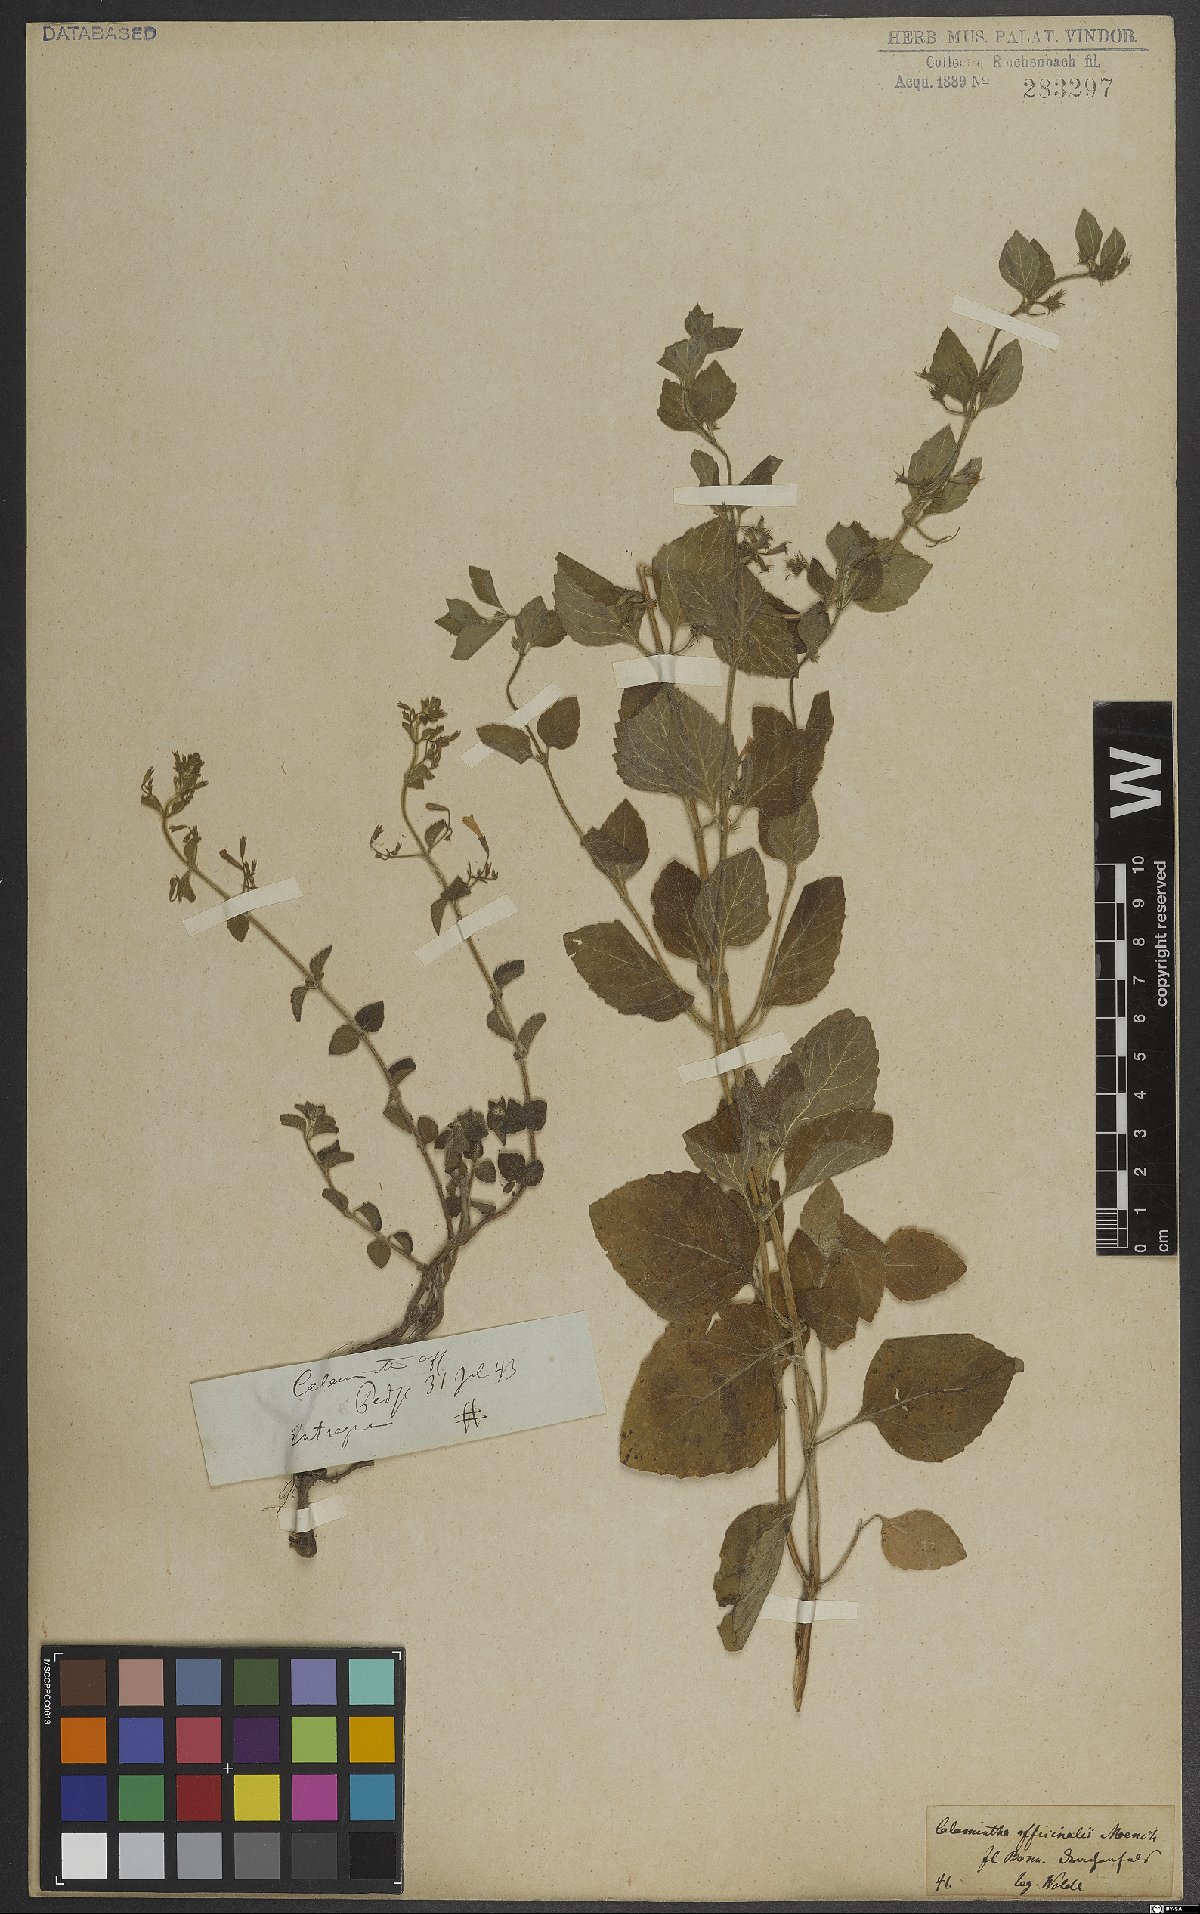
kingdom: Plantae
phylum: Tracheophyta
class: Magnoliopsida
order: Lamiales
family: Lamiaceae
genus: Clinopodium
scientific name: Clinopodium nepeta
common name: Lesser calamint
